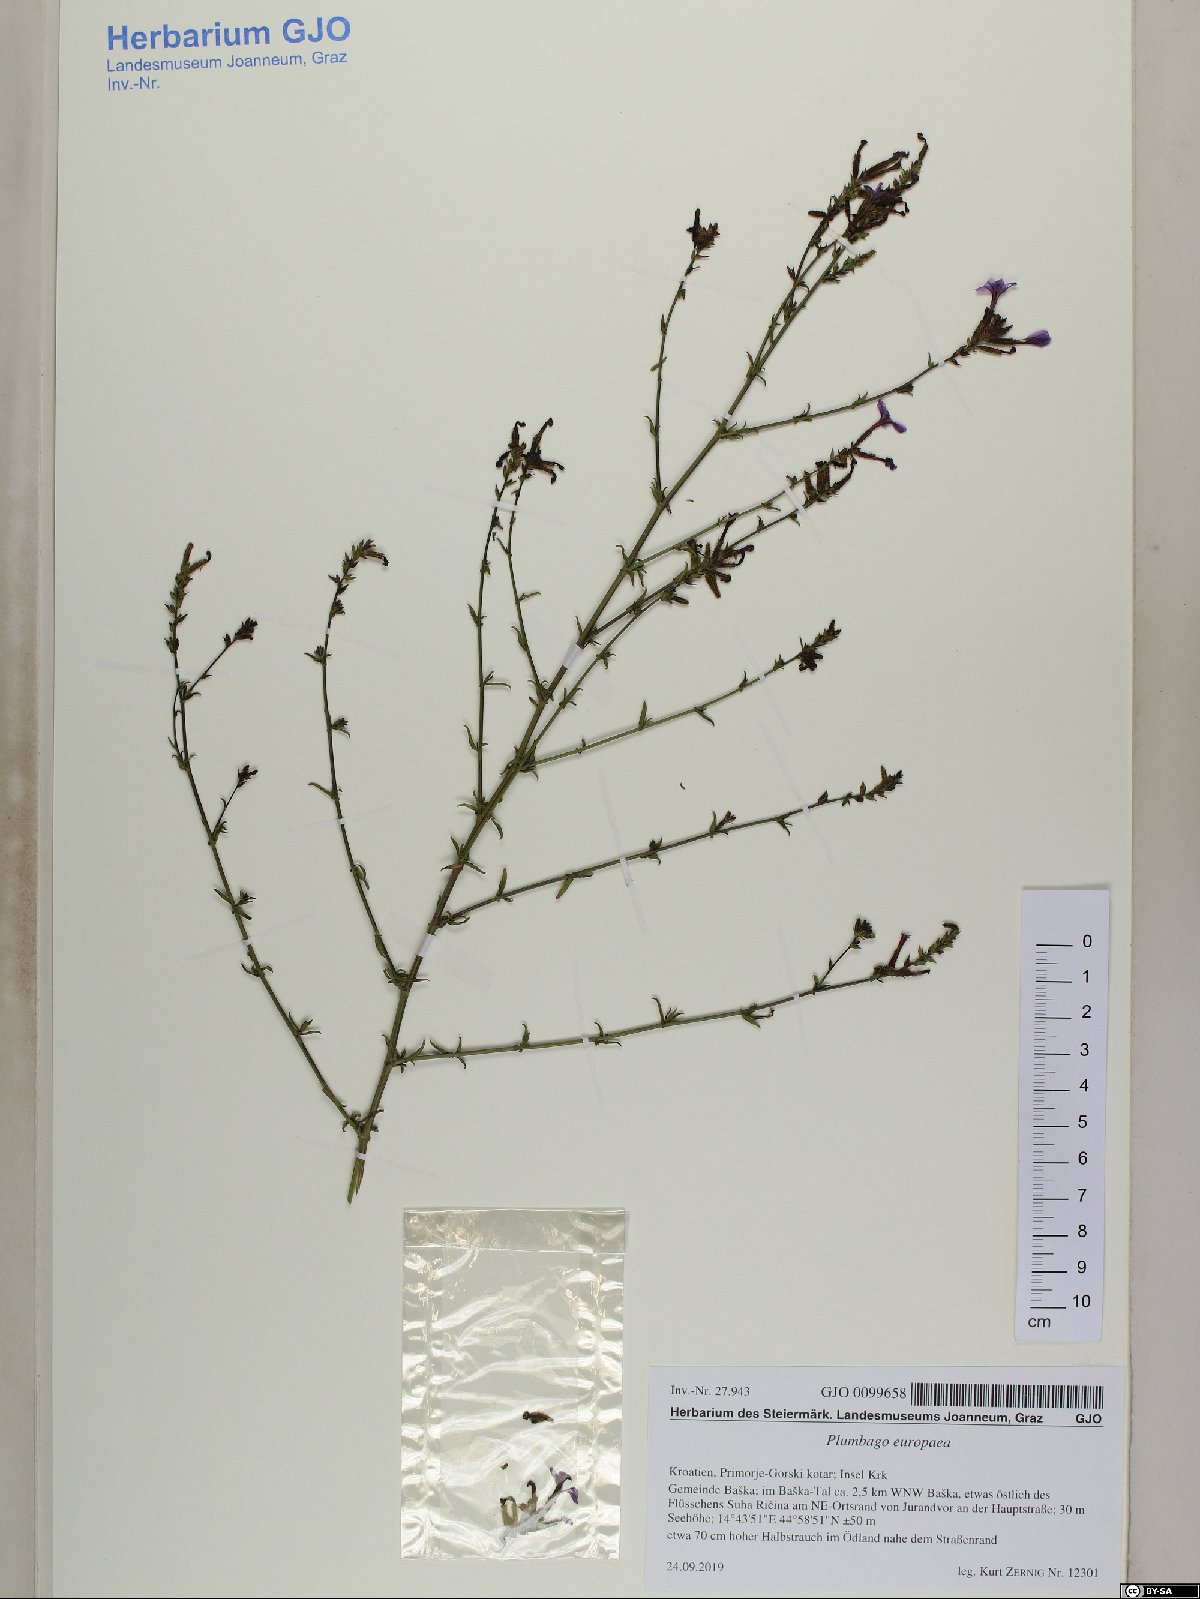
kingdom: Plantae
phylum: Tracheophyta
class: Magnoliopsida
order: Caryophyllales
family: Plumbaginaceae
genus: Plumbago
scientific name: Plumbago europaea
